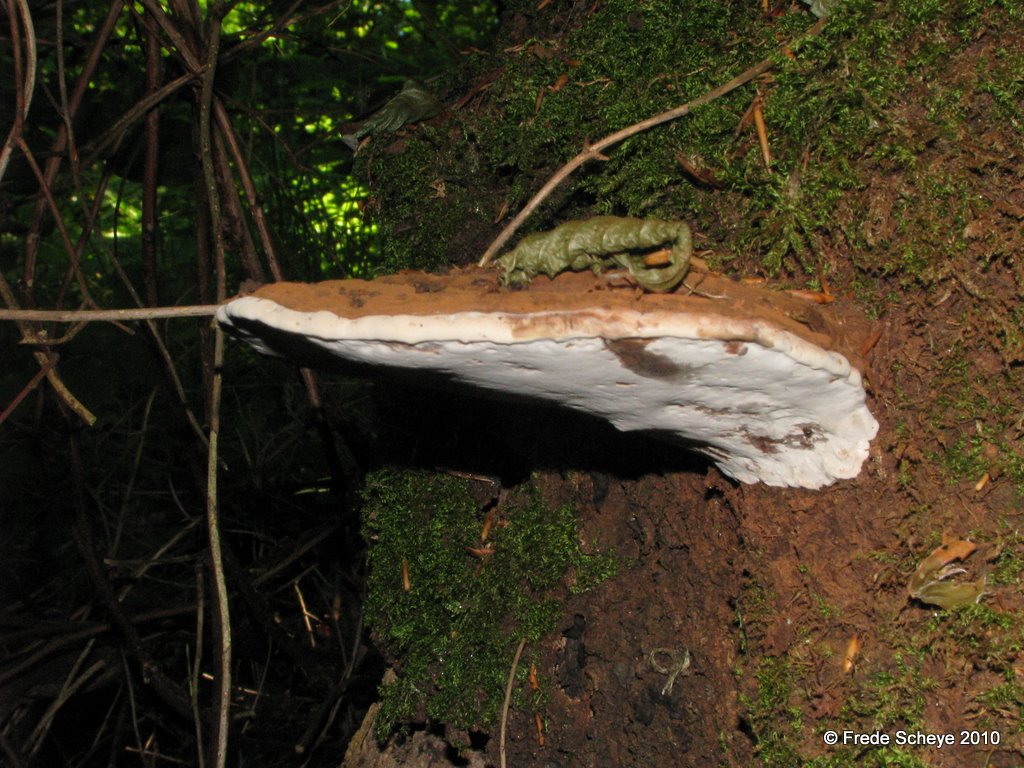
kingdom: Fungi
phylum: Basidiomycota
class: Agaricomycetes
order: Polyporales
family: Polyporaceae
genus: Ganoderma
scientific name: Ganoderma applanatum
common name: flad lakporesvamp
